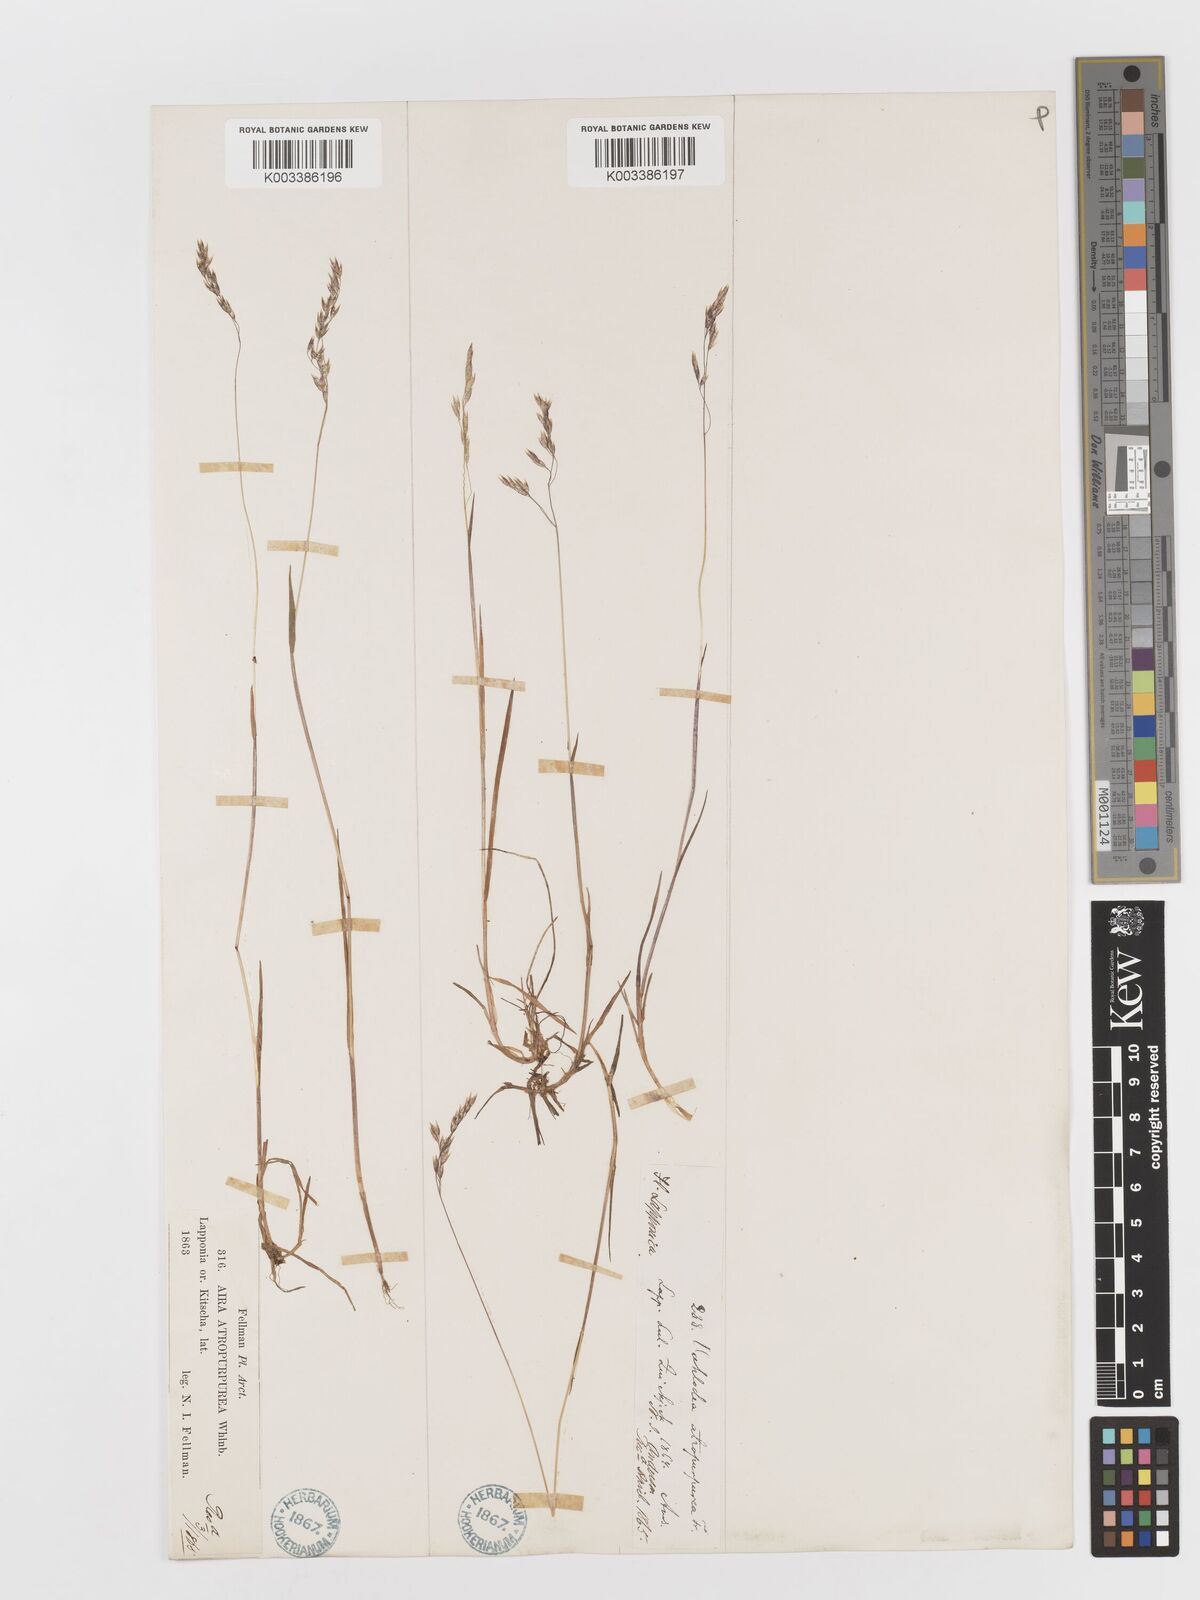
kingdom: Plantae
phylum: Tracheophyta
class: Liliopsida
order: Poales
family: Poaceae
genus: Vahlodea
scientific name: Vahlodea atropurpurea
